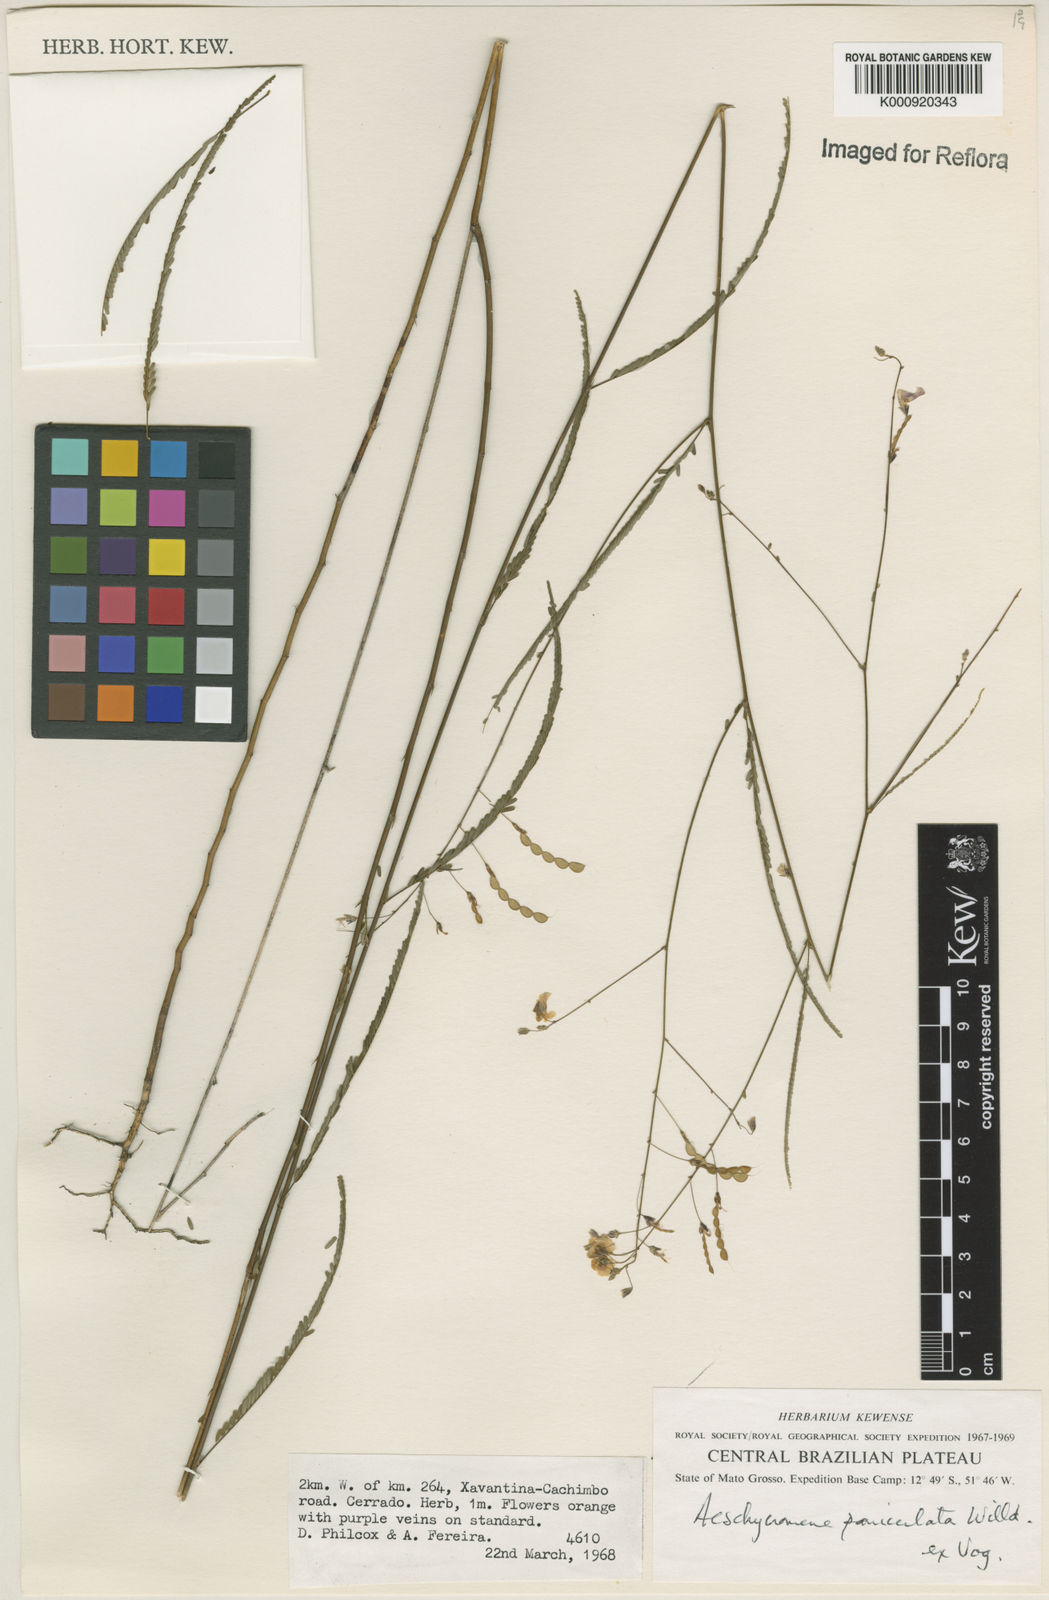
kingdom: Plantae
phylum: Tracheophyta
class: Magnoliopsida
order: Fabales
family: Fabaceae
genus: Ctenodon
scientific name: Ctenodon paniculatus
